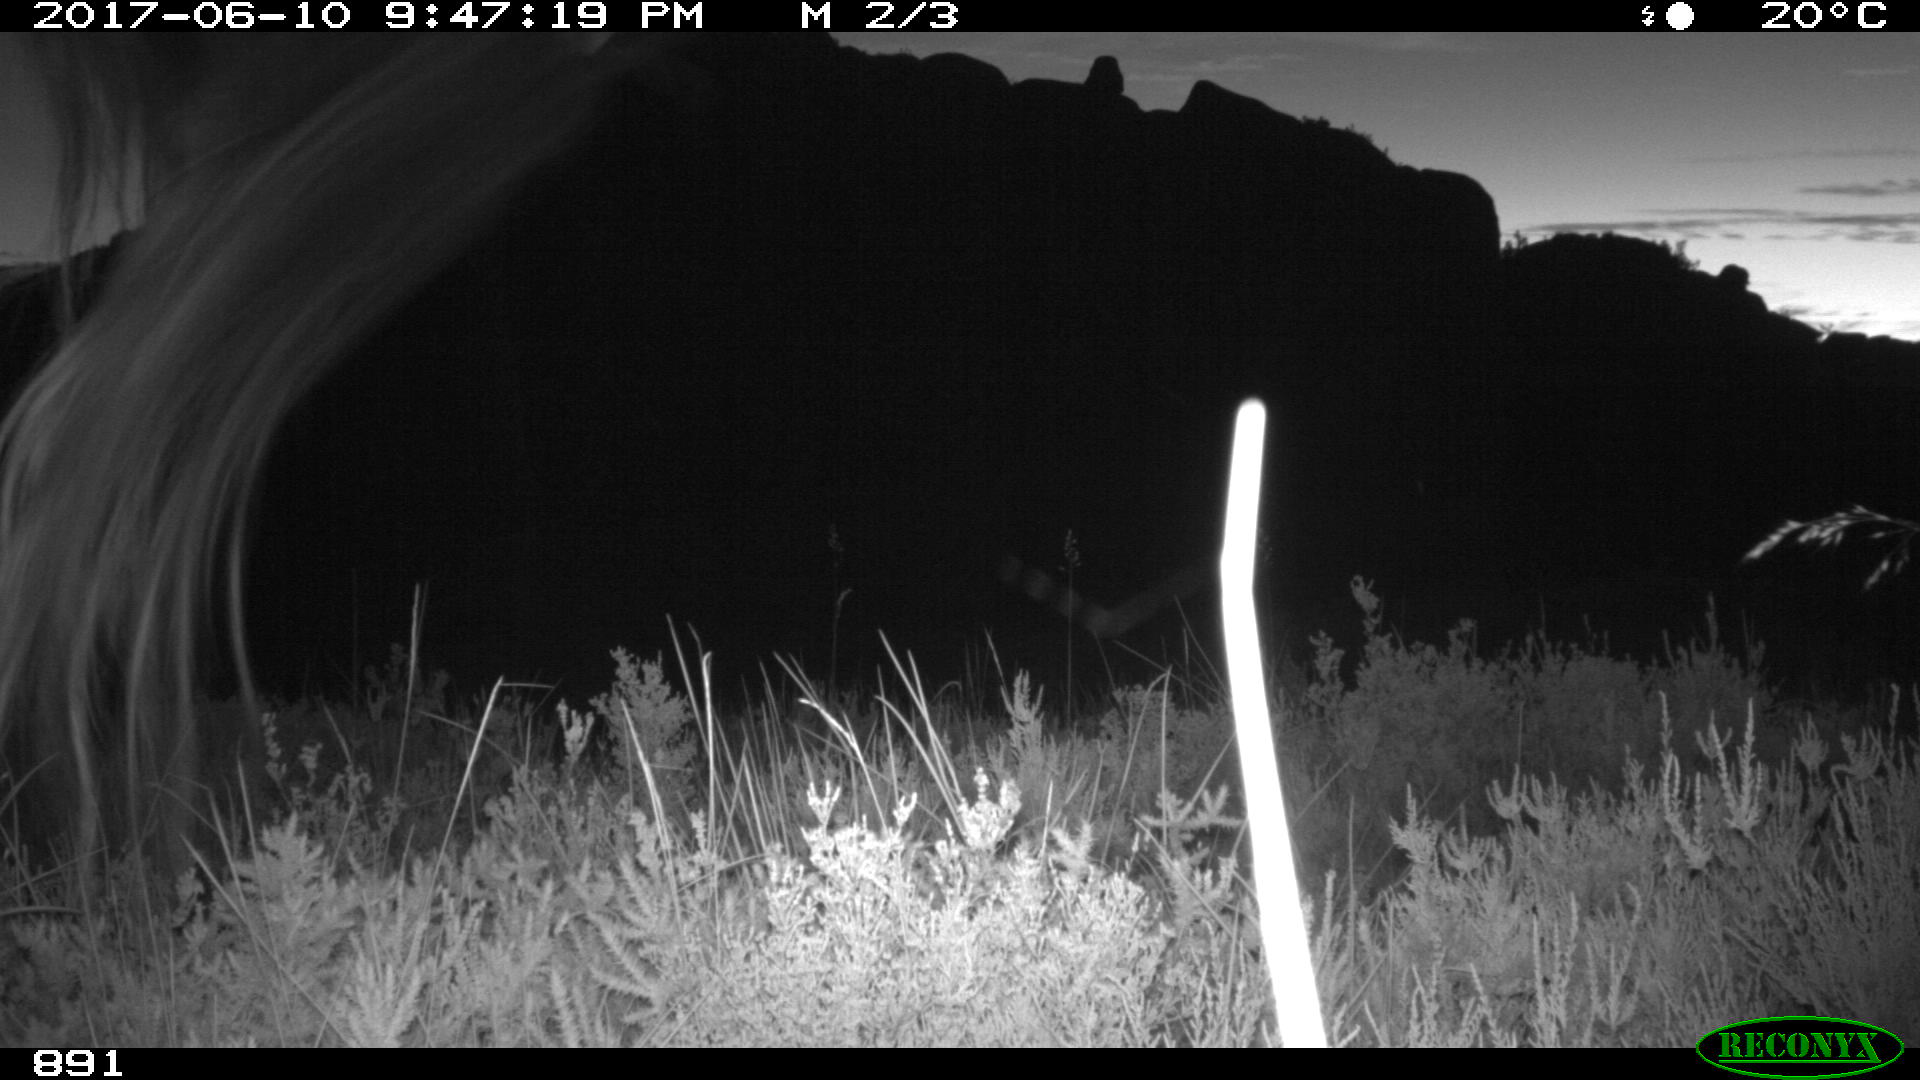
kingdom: Animalia
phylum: Chordata
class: Mammalia
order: Perissodactyla
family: Equidae
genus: Equus
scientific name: Equus caballus
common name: Horse
